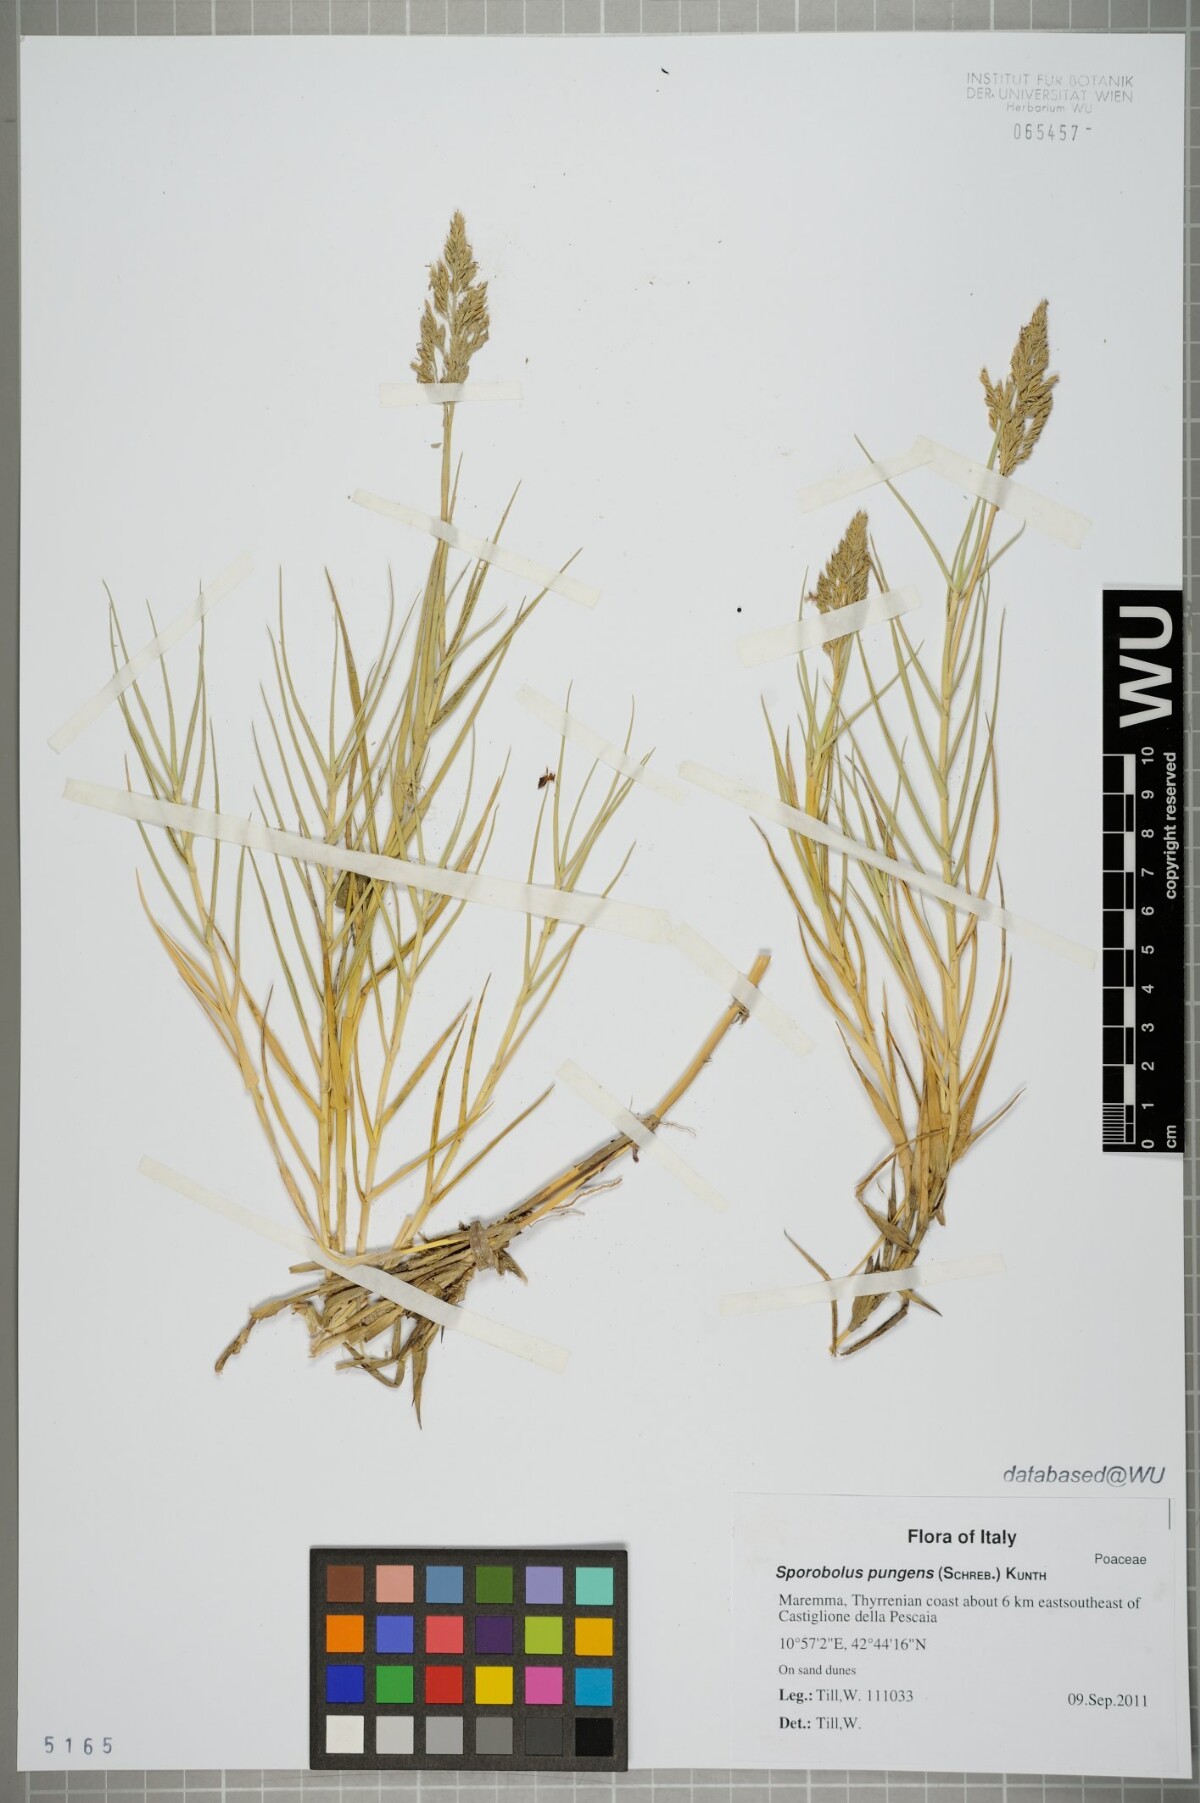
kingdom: Plantae
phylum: Tracheophyta
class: Liliopsida
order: Poales
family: Poaceae
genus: Sporobolus
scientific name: Sporobolus pungens
